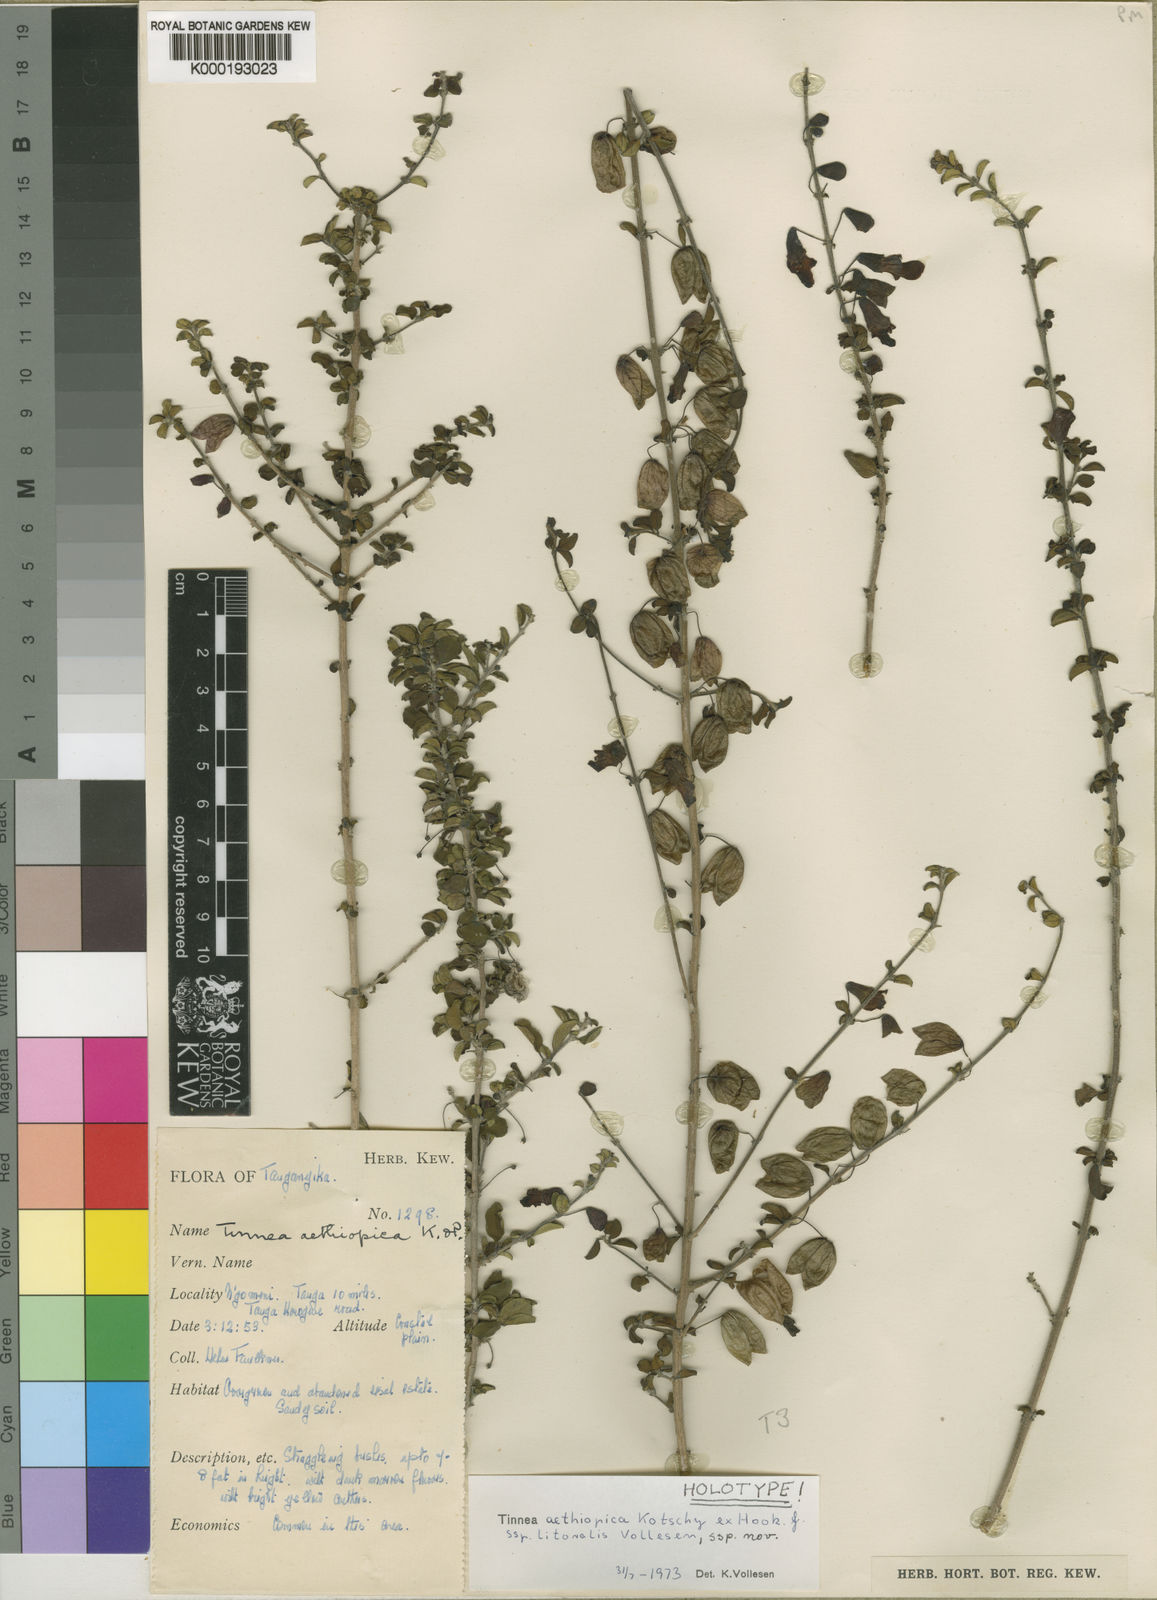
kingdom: Plantae
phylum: Tracheophyta
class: Magnoliopsida
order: Lamiales
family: Lamiaceae
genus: Tinnea
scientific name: Tinnea aethiopica
